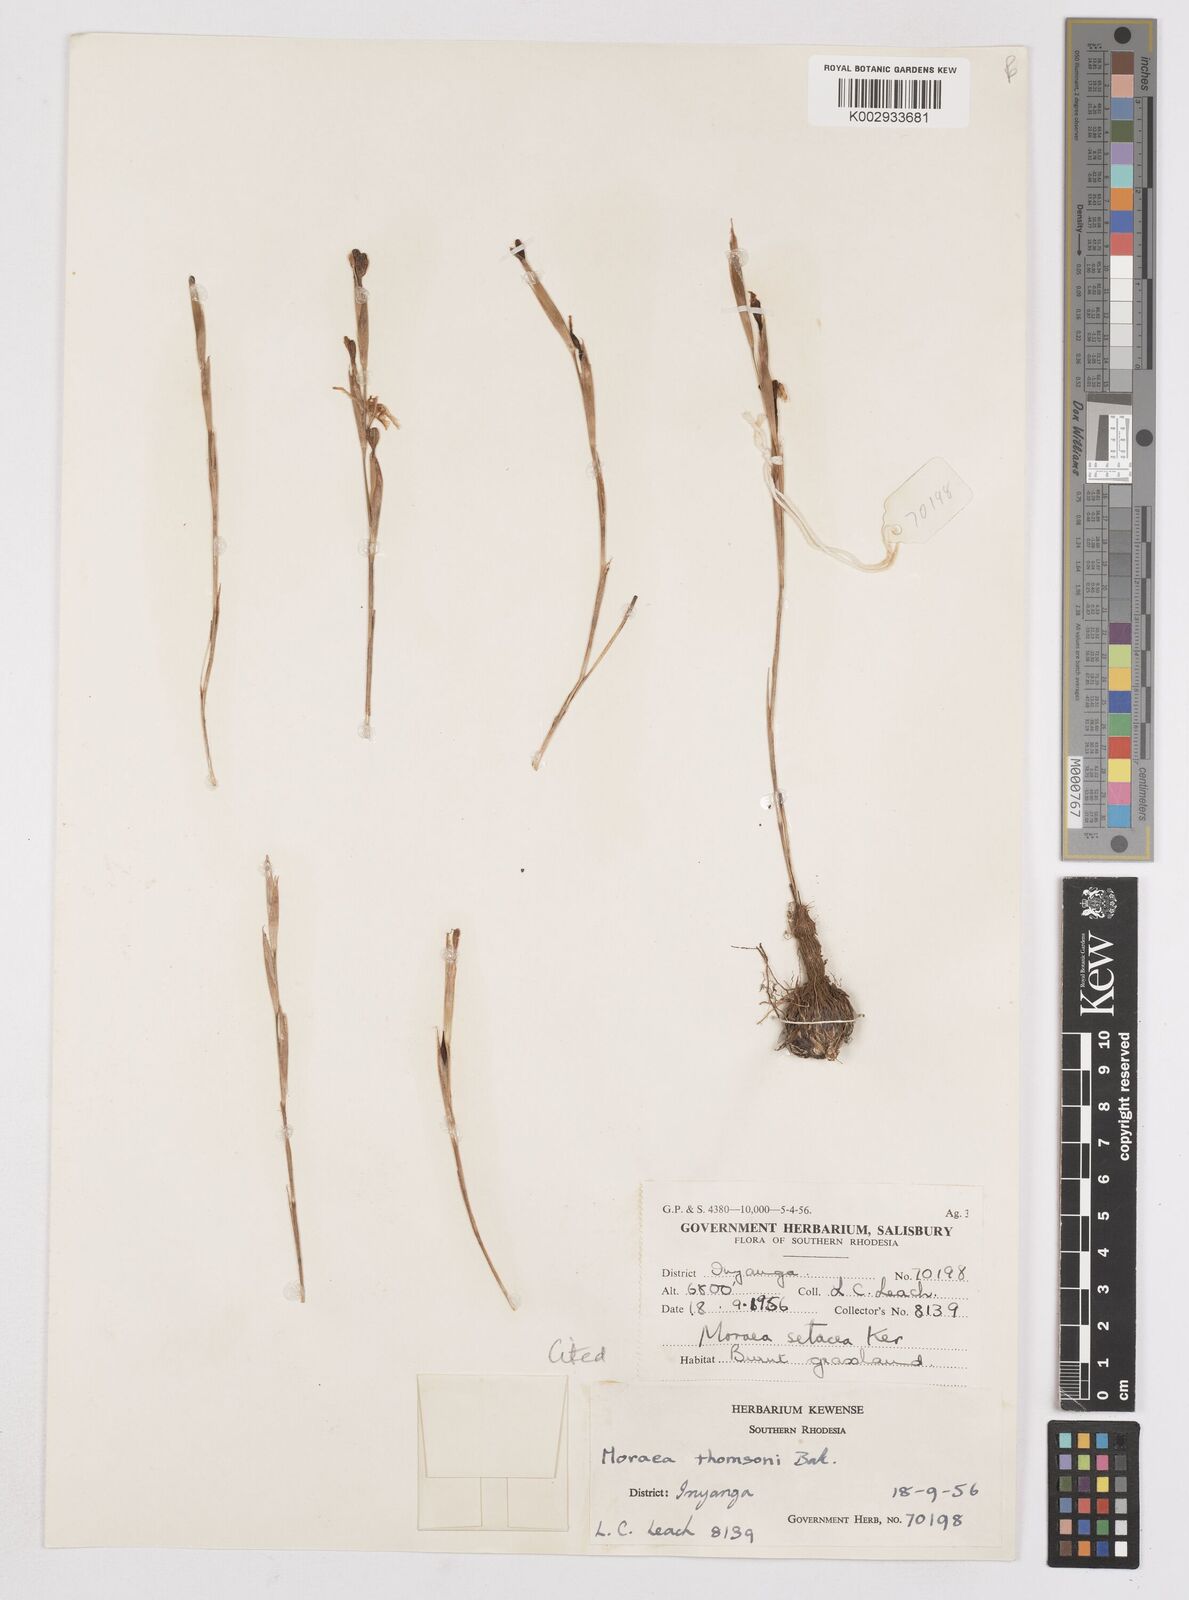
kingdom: Plantae
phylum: Tracheophyta
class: Liliopsida
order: Asparagales
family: Iridaceae
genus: Moraea
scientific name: Moraea thomsonii
